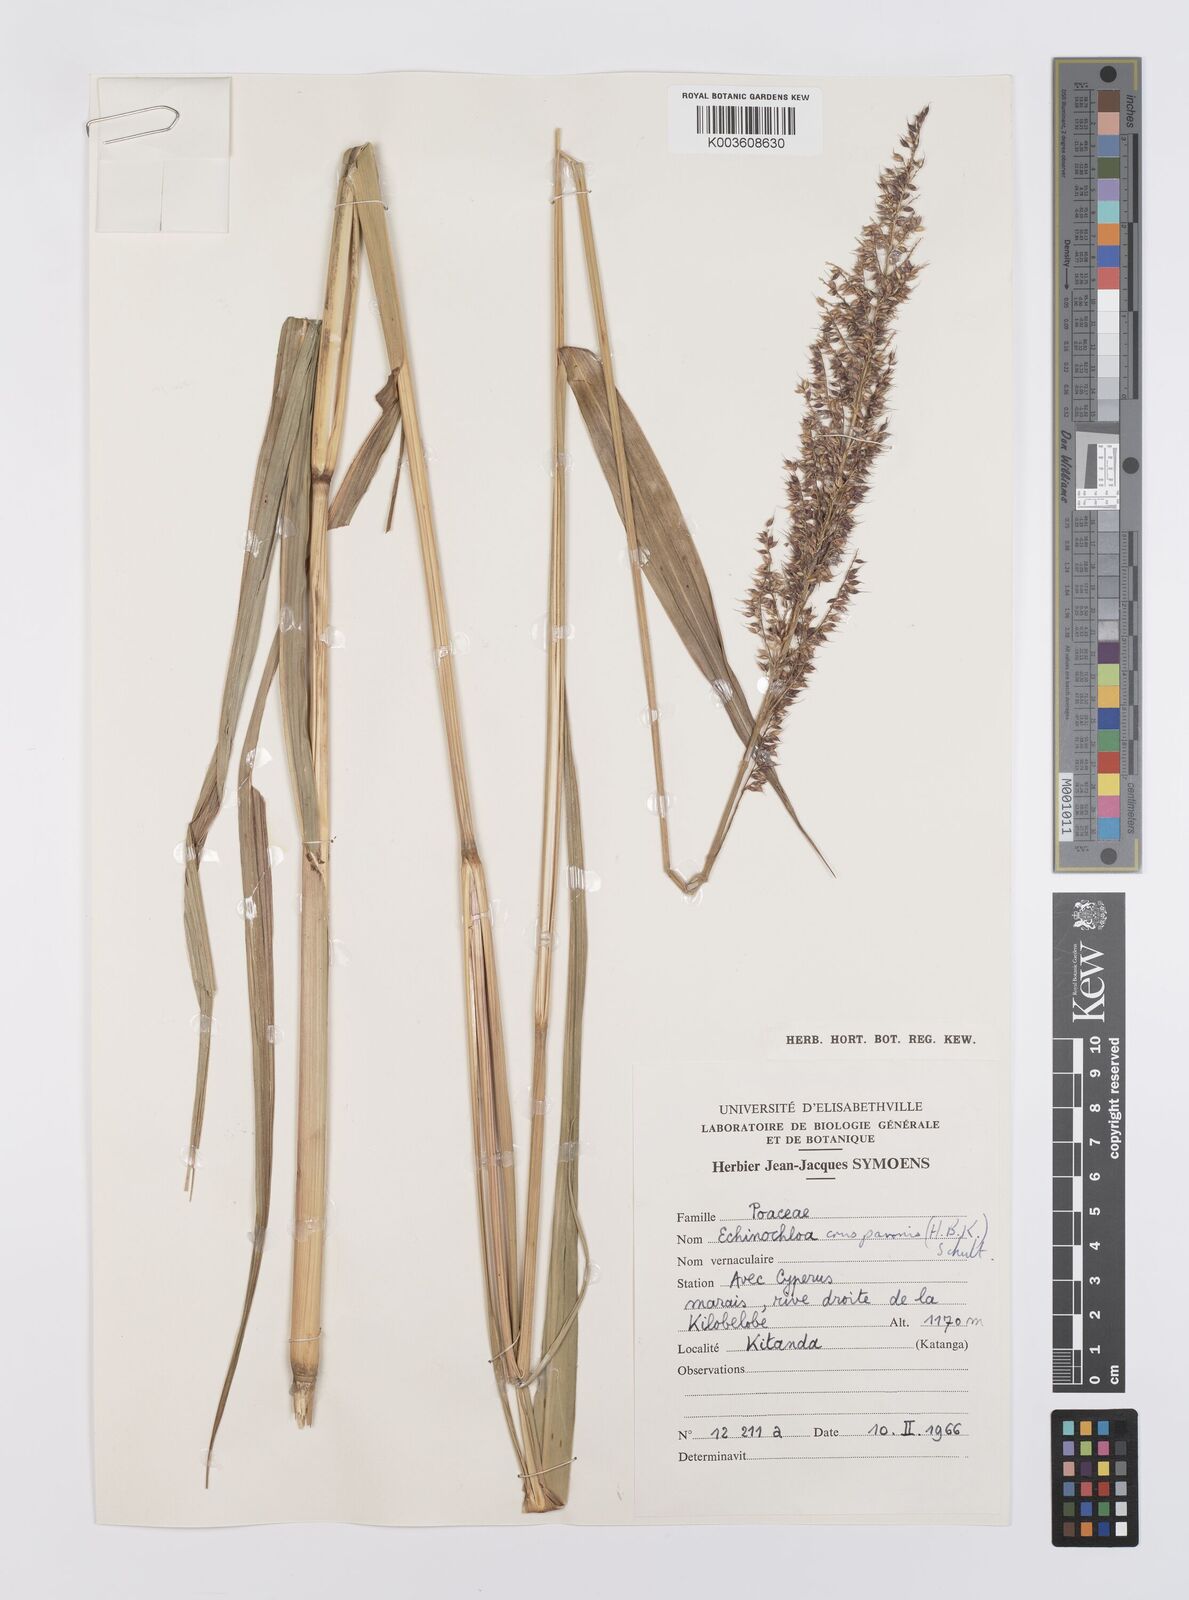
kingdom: Plantae
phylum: Tracheophyta
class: Liliopsida
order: Poales
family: Poaceae
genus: Echinochloa
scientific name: Echinochloa crus-pavonis
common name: Gulf cockspur grass
